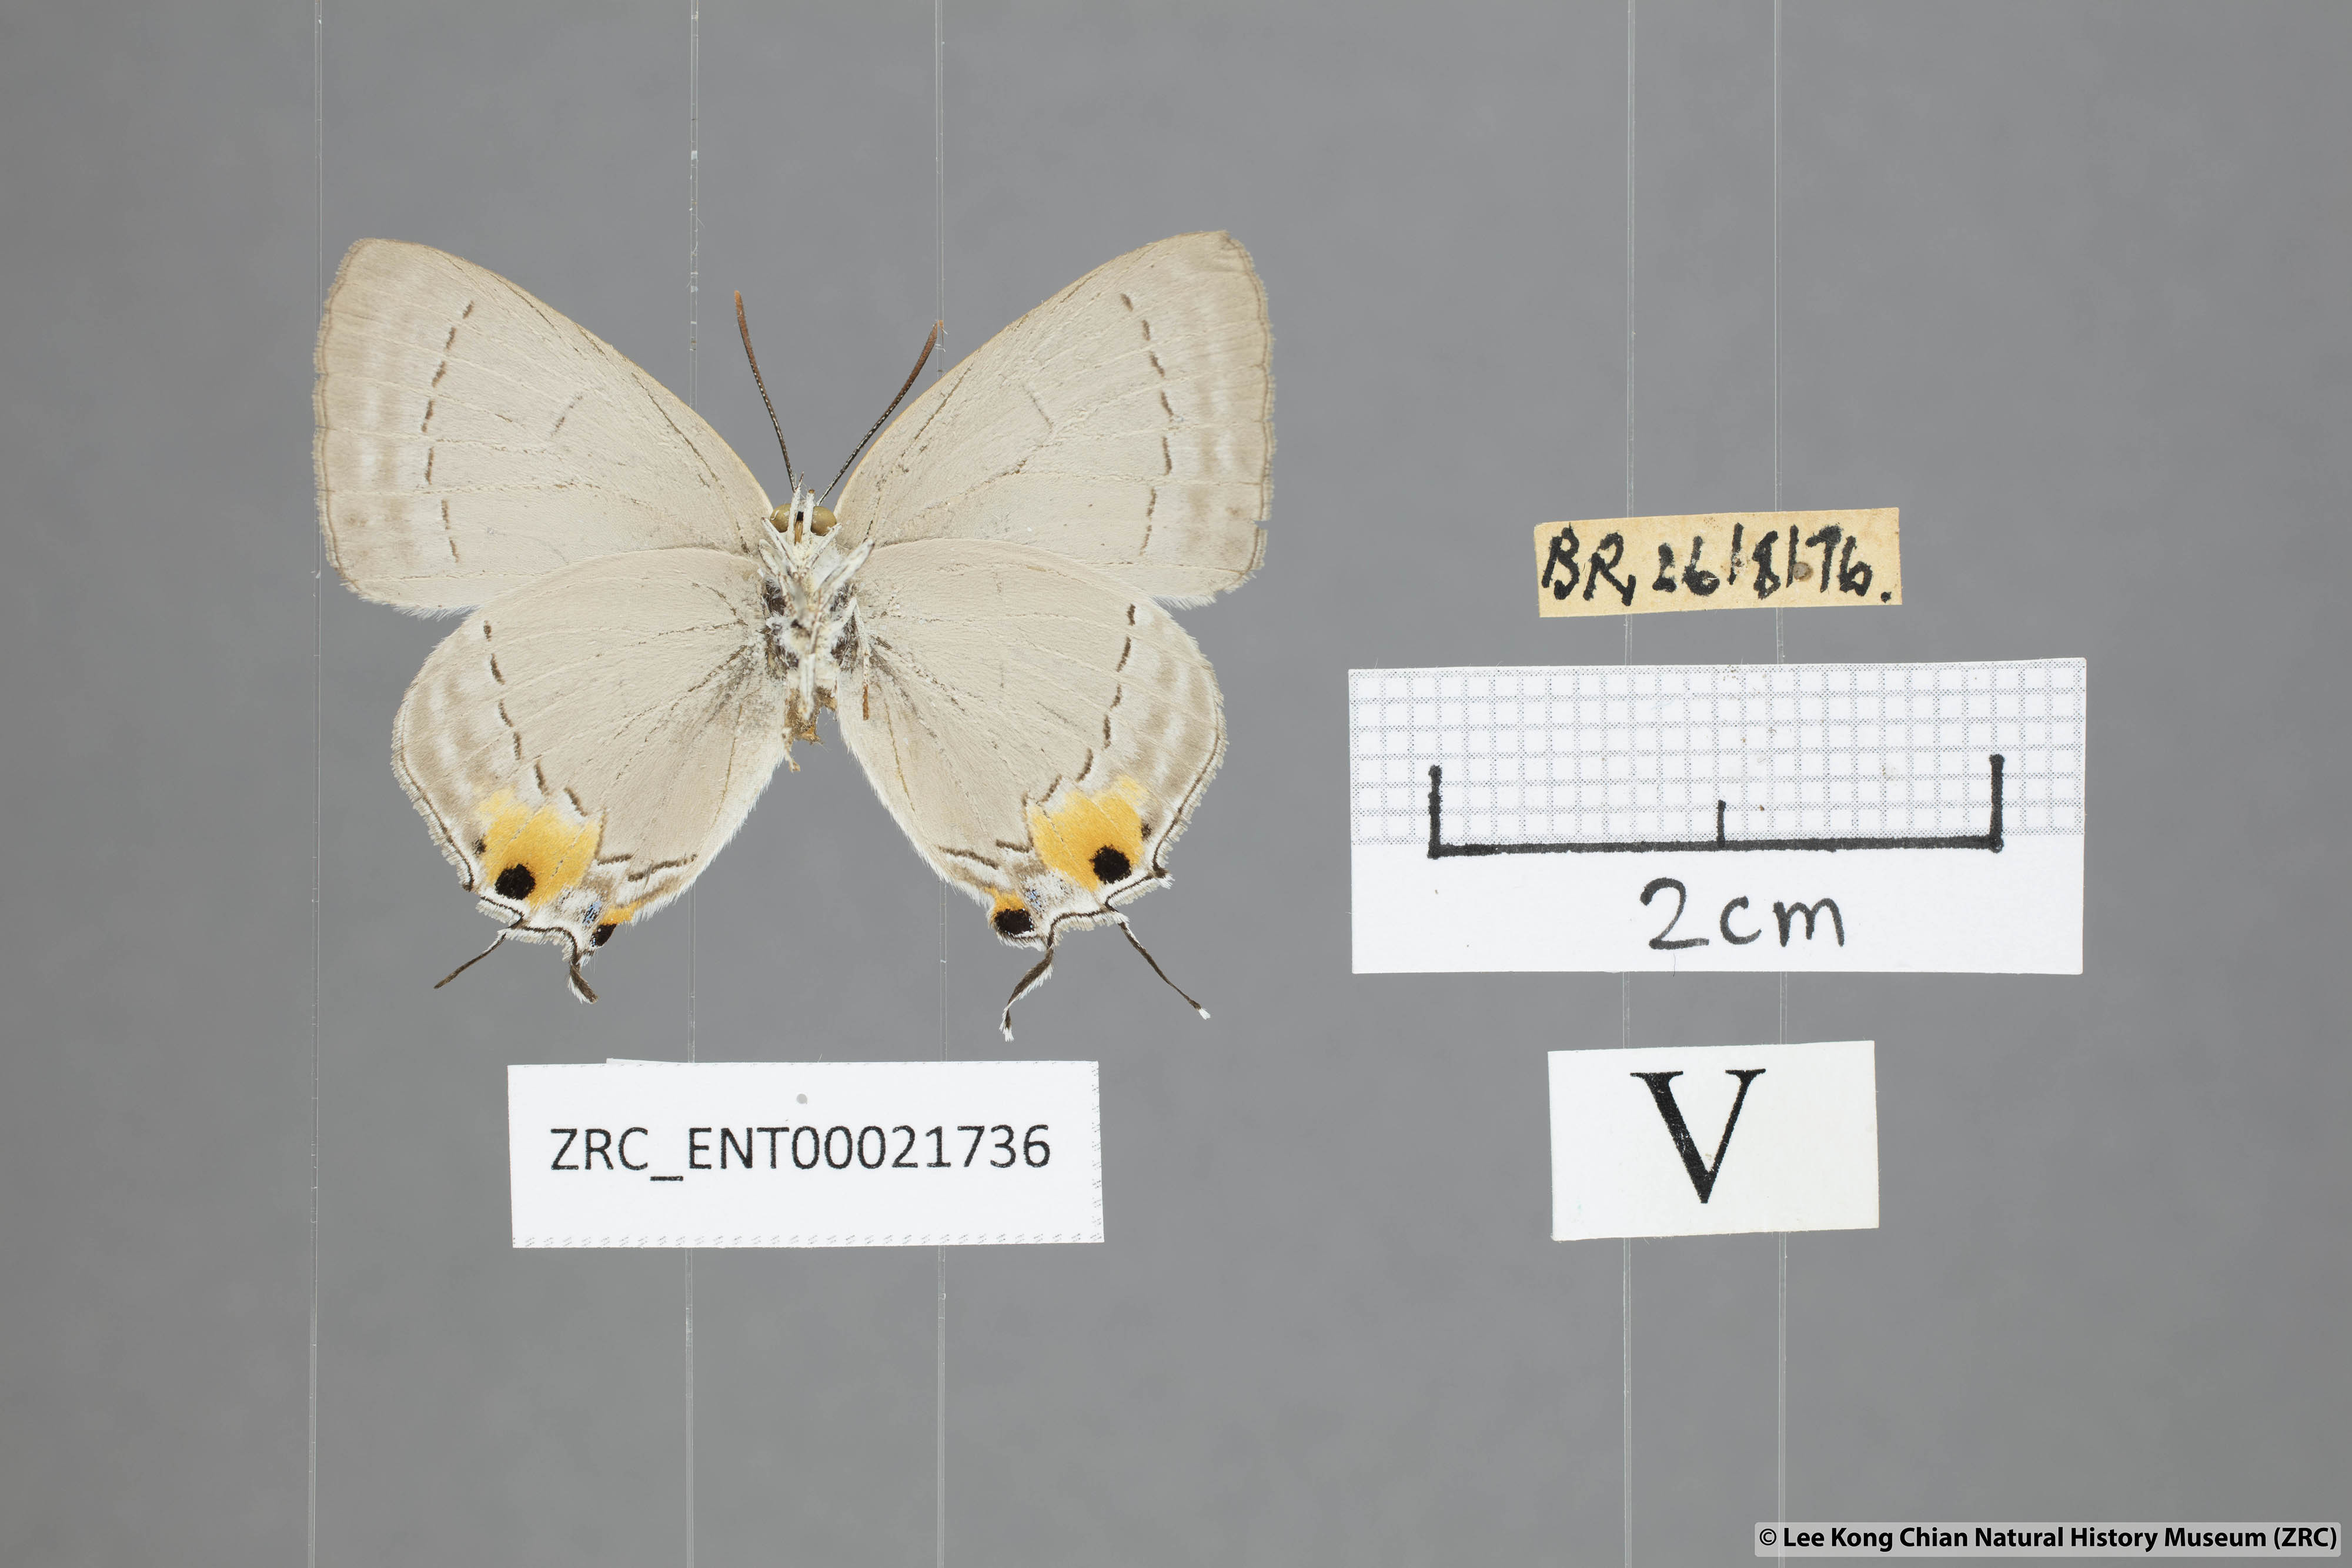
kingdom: Animalia
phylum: Arthropoda
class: Insecta
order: Lepidoptera
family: Lycaenidae
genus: Pratapa
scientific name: Pratapa deva
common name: White royal
